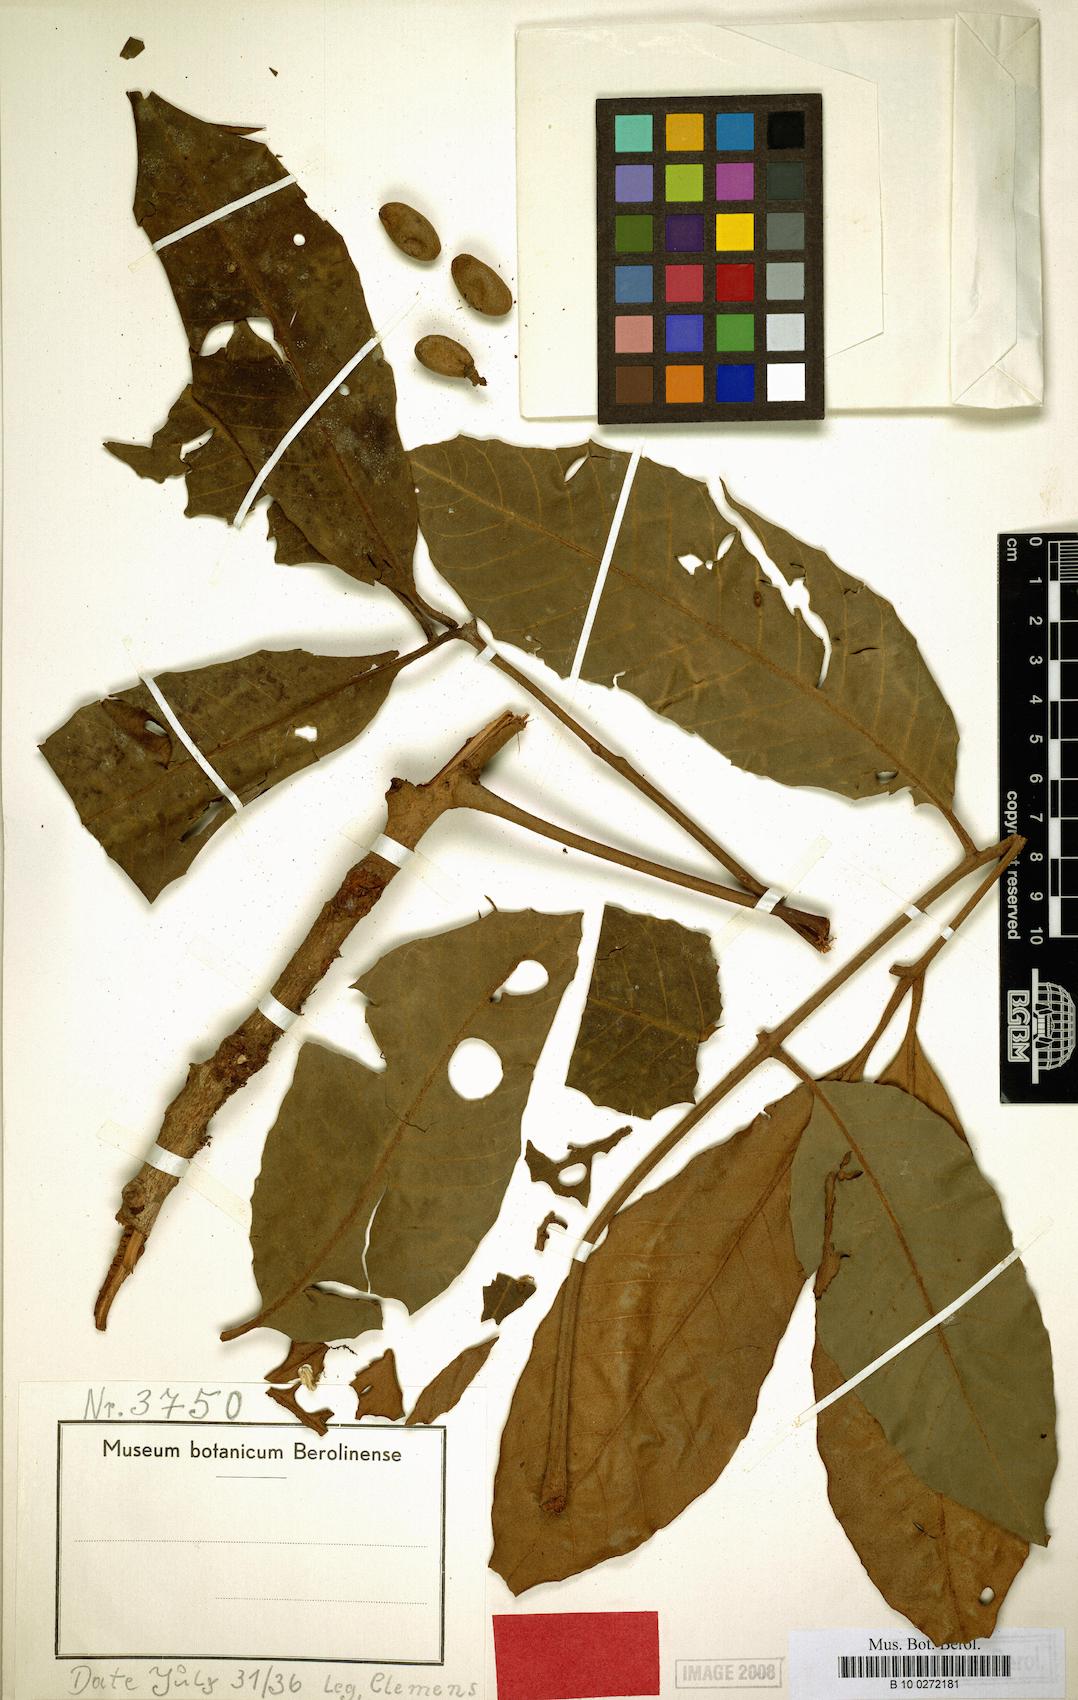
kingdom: Plantae
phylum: Tracheophyta
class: Magnoliopsida
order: Sapindales
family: Meliaceae
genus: Aglaia
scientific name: Aglaia subcuprea
